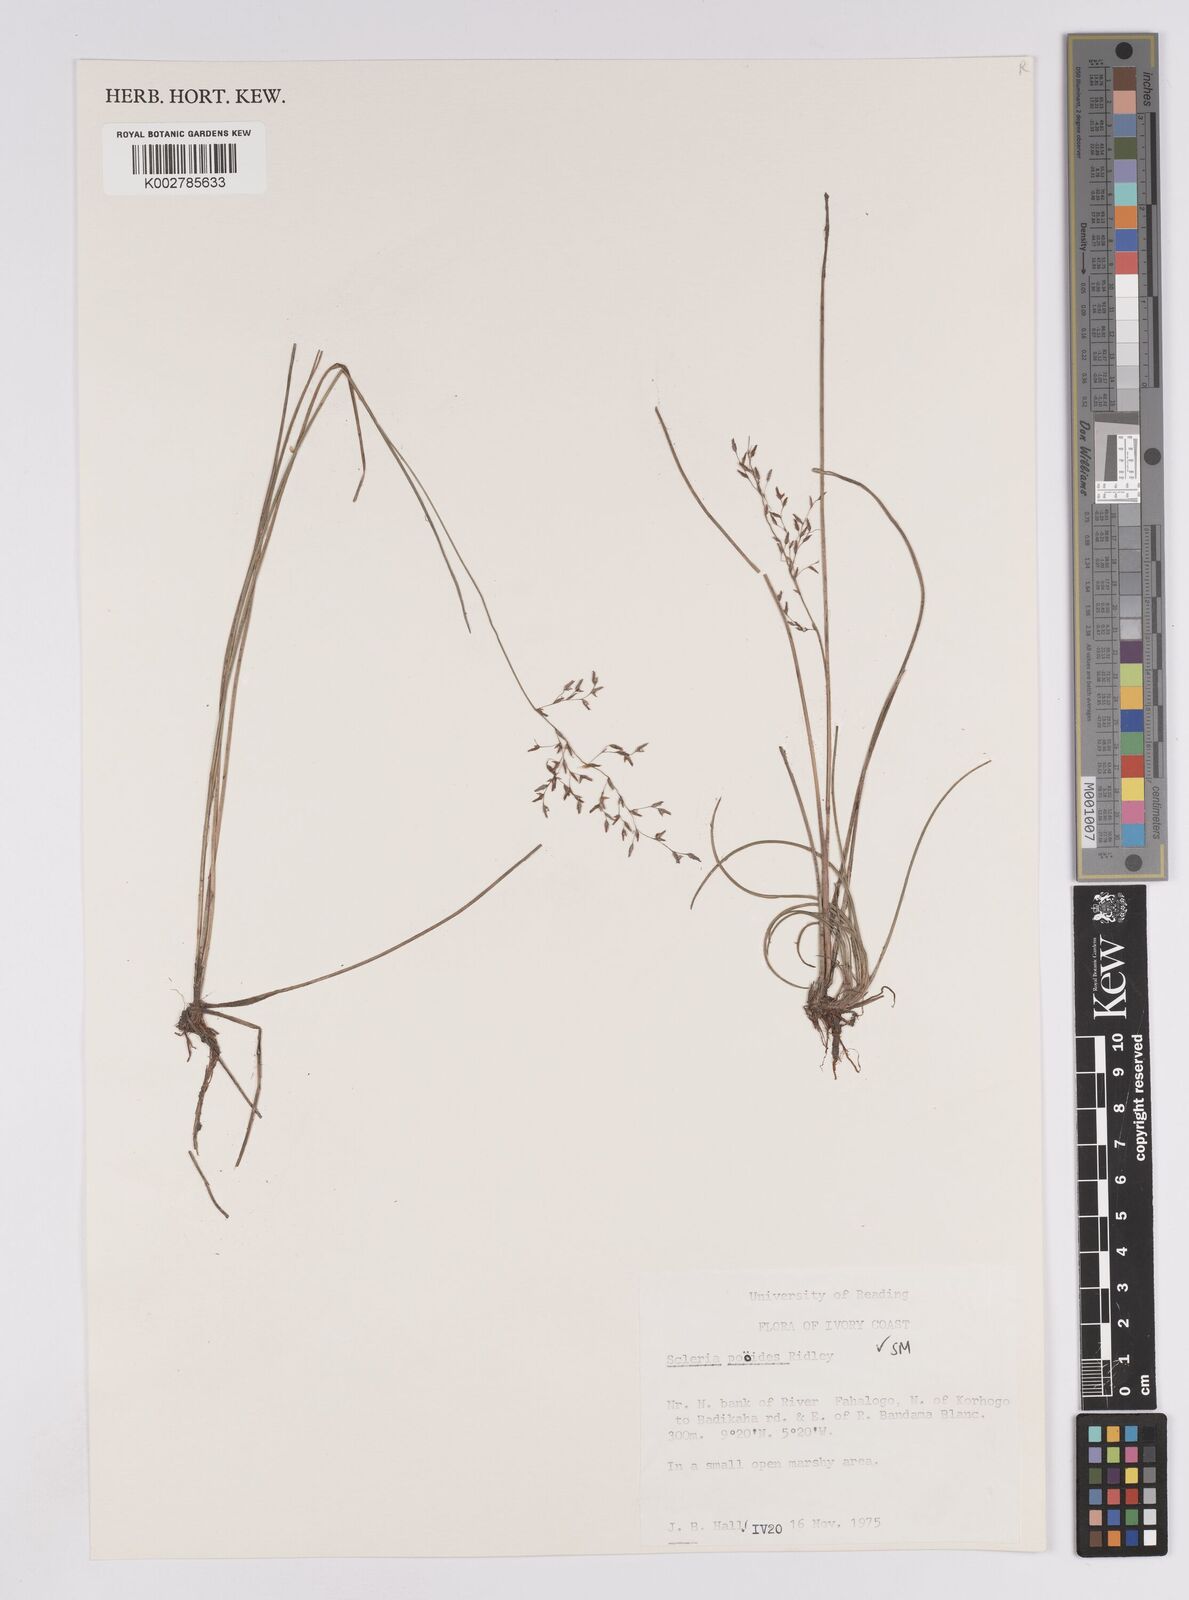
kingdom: Plantae
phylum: Tracheophyta
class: Liliopsida
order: Poales
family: Cyperaceae
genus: Scleria
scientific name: Scleria pooides
